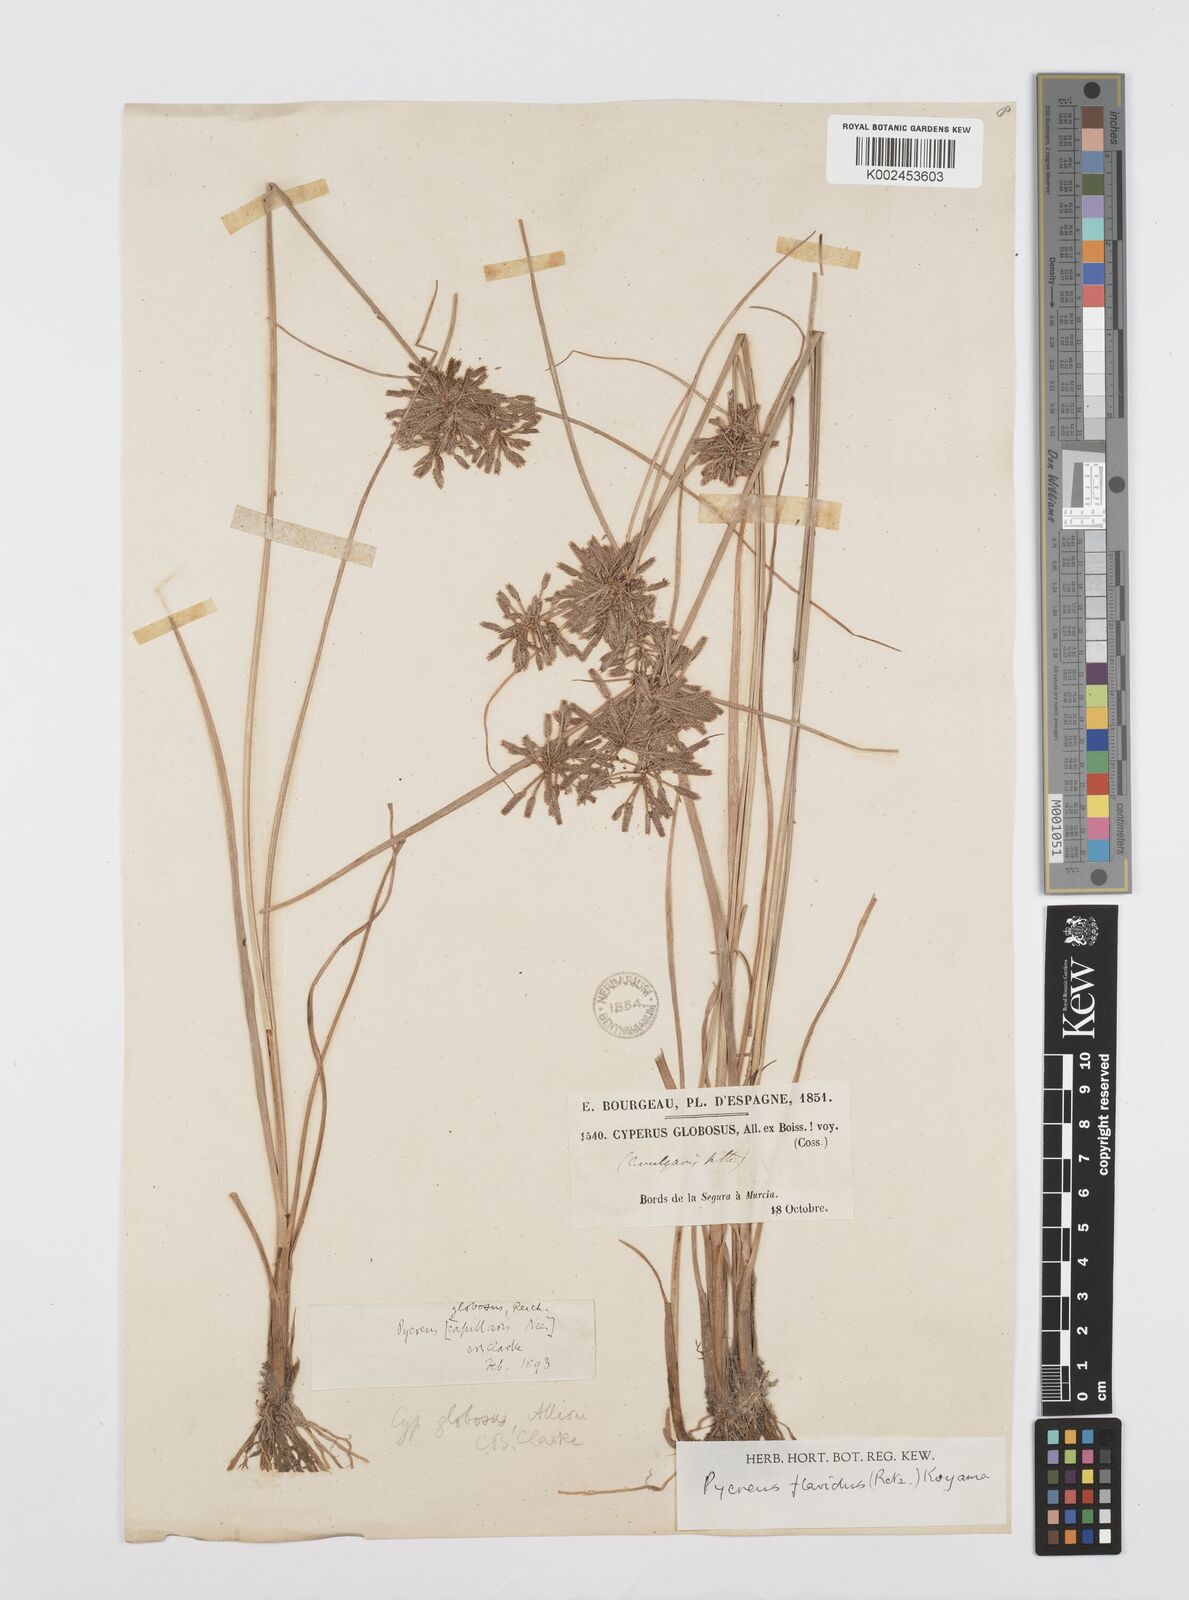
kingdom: Plantae
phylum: Tracheophyta
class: Liliopsida
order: Poales
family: Cyperaceae
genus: Cyperus
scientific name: Cyperus flavidus
